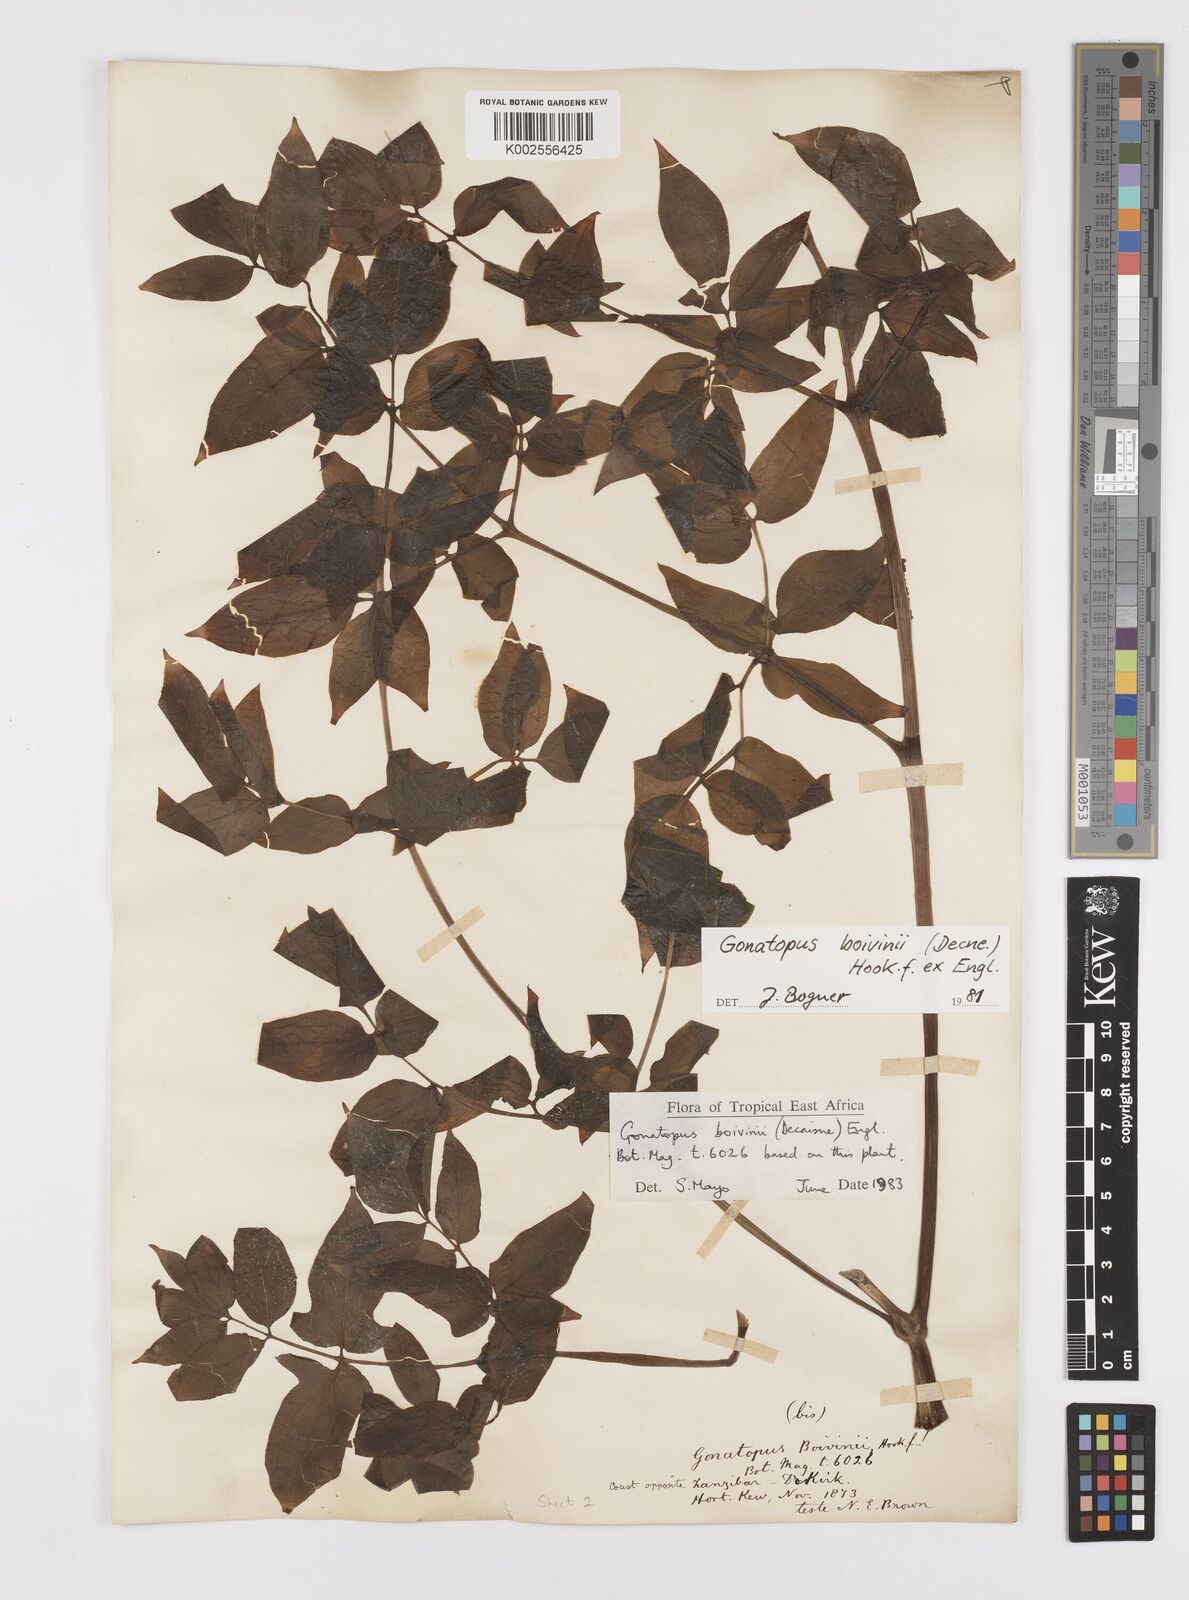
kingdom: Plantae
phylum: Tracheophyta
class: Liliopsida
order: Alismatales
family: Araceae
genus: Gonatopus
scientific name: Gonatopus boivinii
